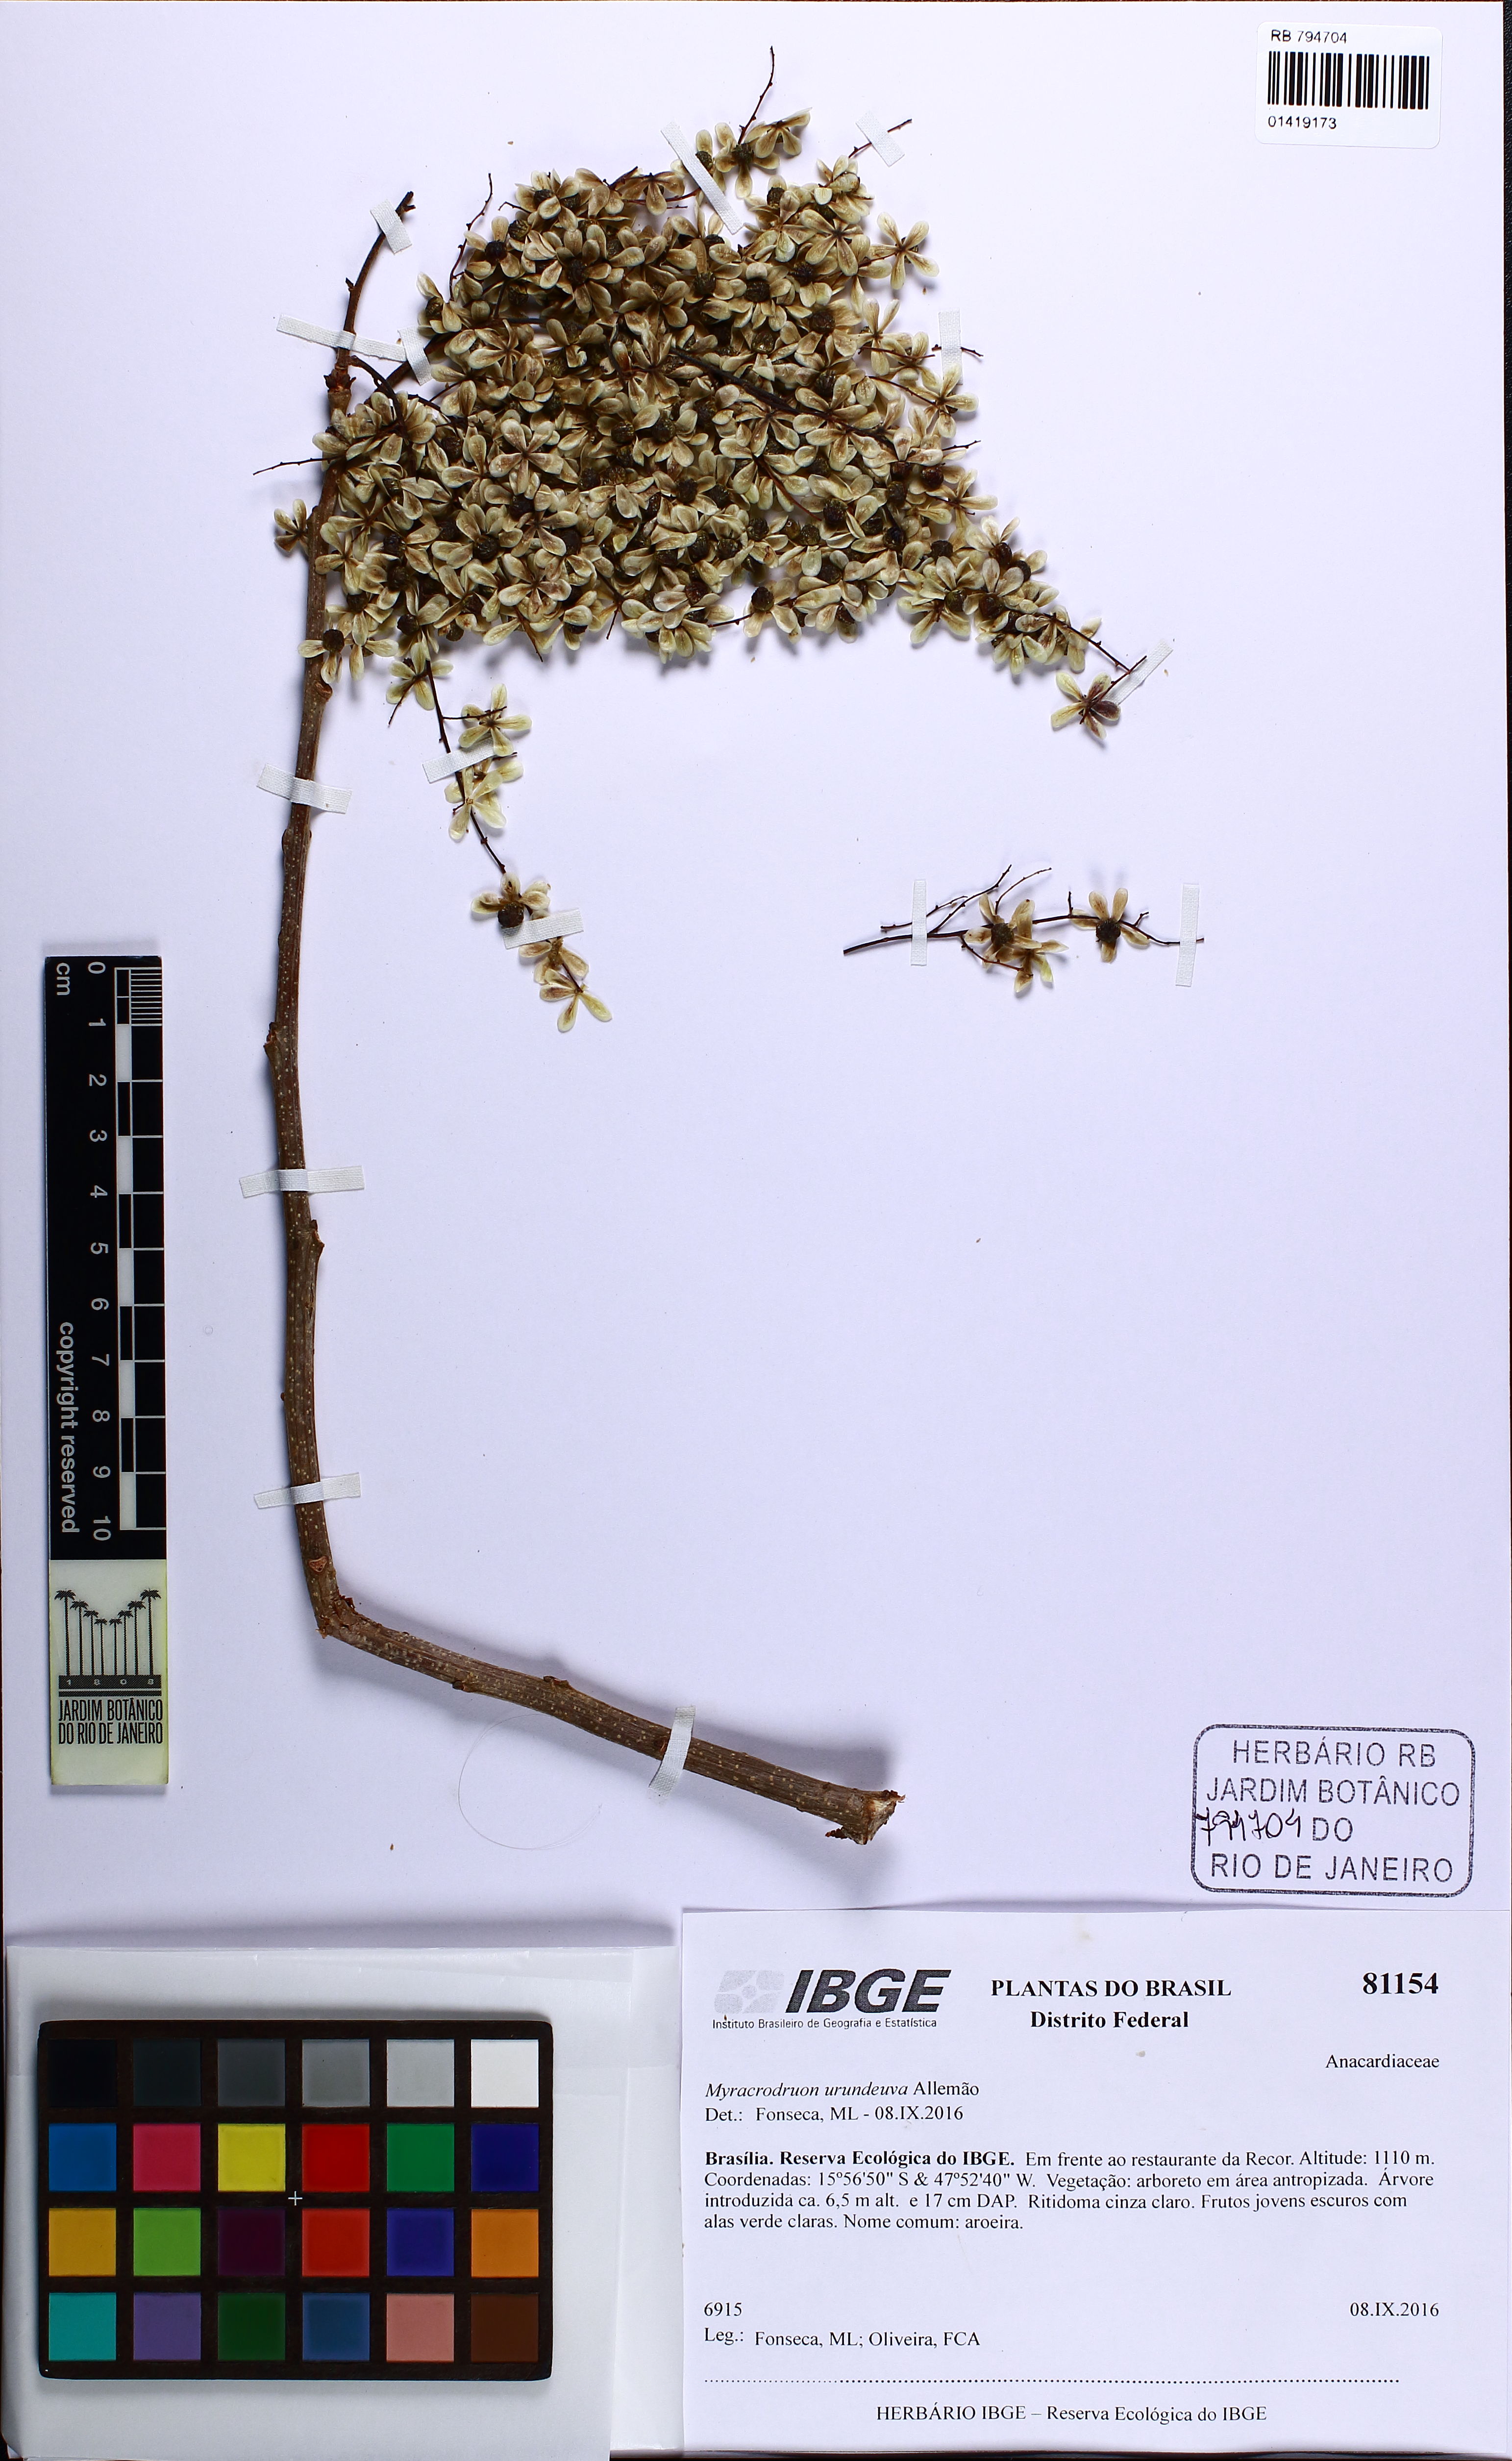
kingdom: Plantae
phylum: Tracheophyta
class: Magnoliopsida
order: Sapindales
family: Anacardiaceae
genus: Myracrodruon
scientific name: Myracrodruon urundeuva
